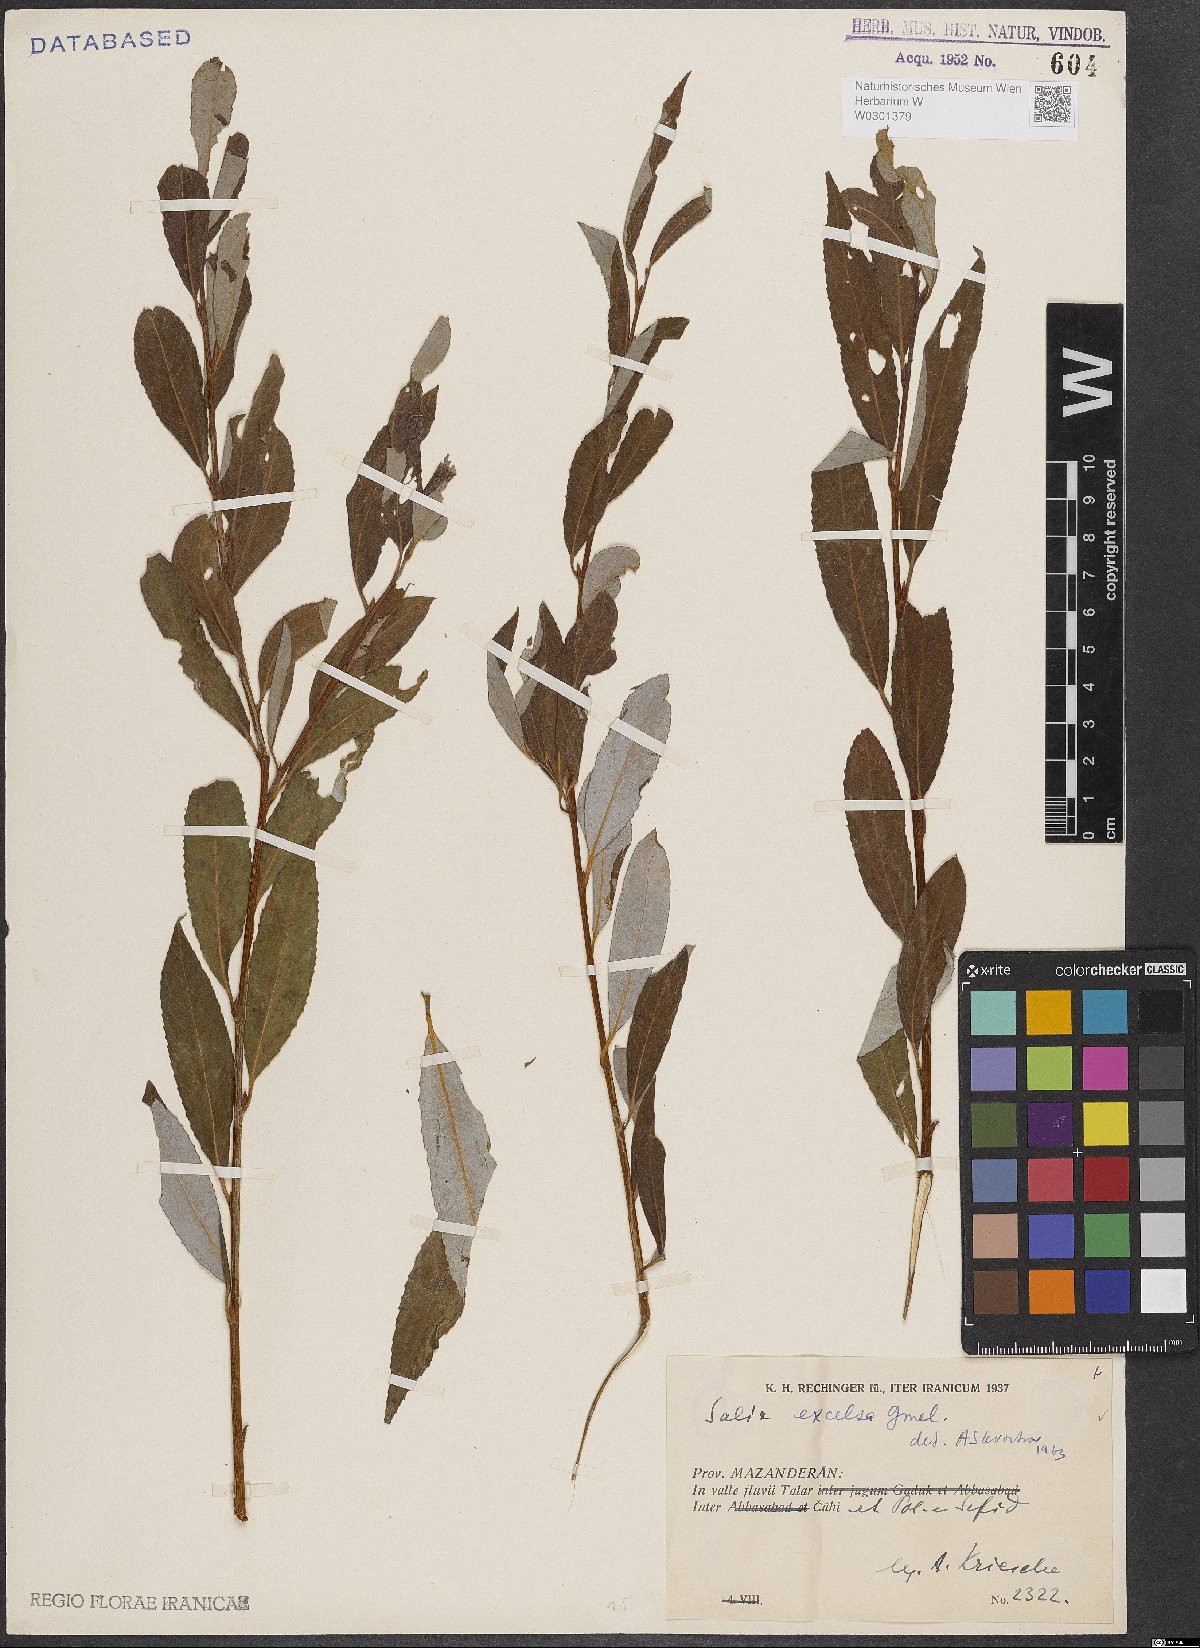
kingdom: Plantae
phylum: Tracheophyta
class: Magnoliopsida
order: Malpighiales
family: Salicaceae
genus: Salix
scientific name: Salix excelsa
